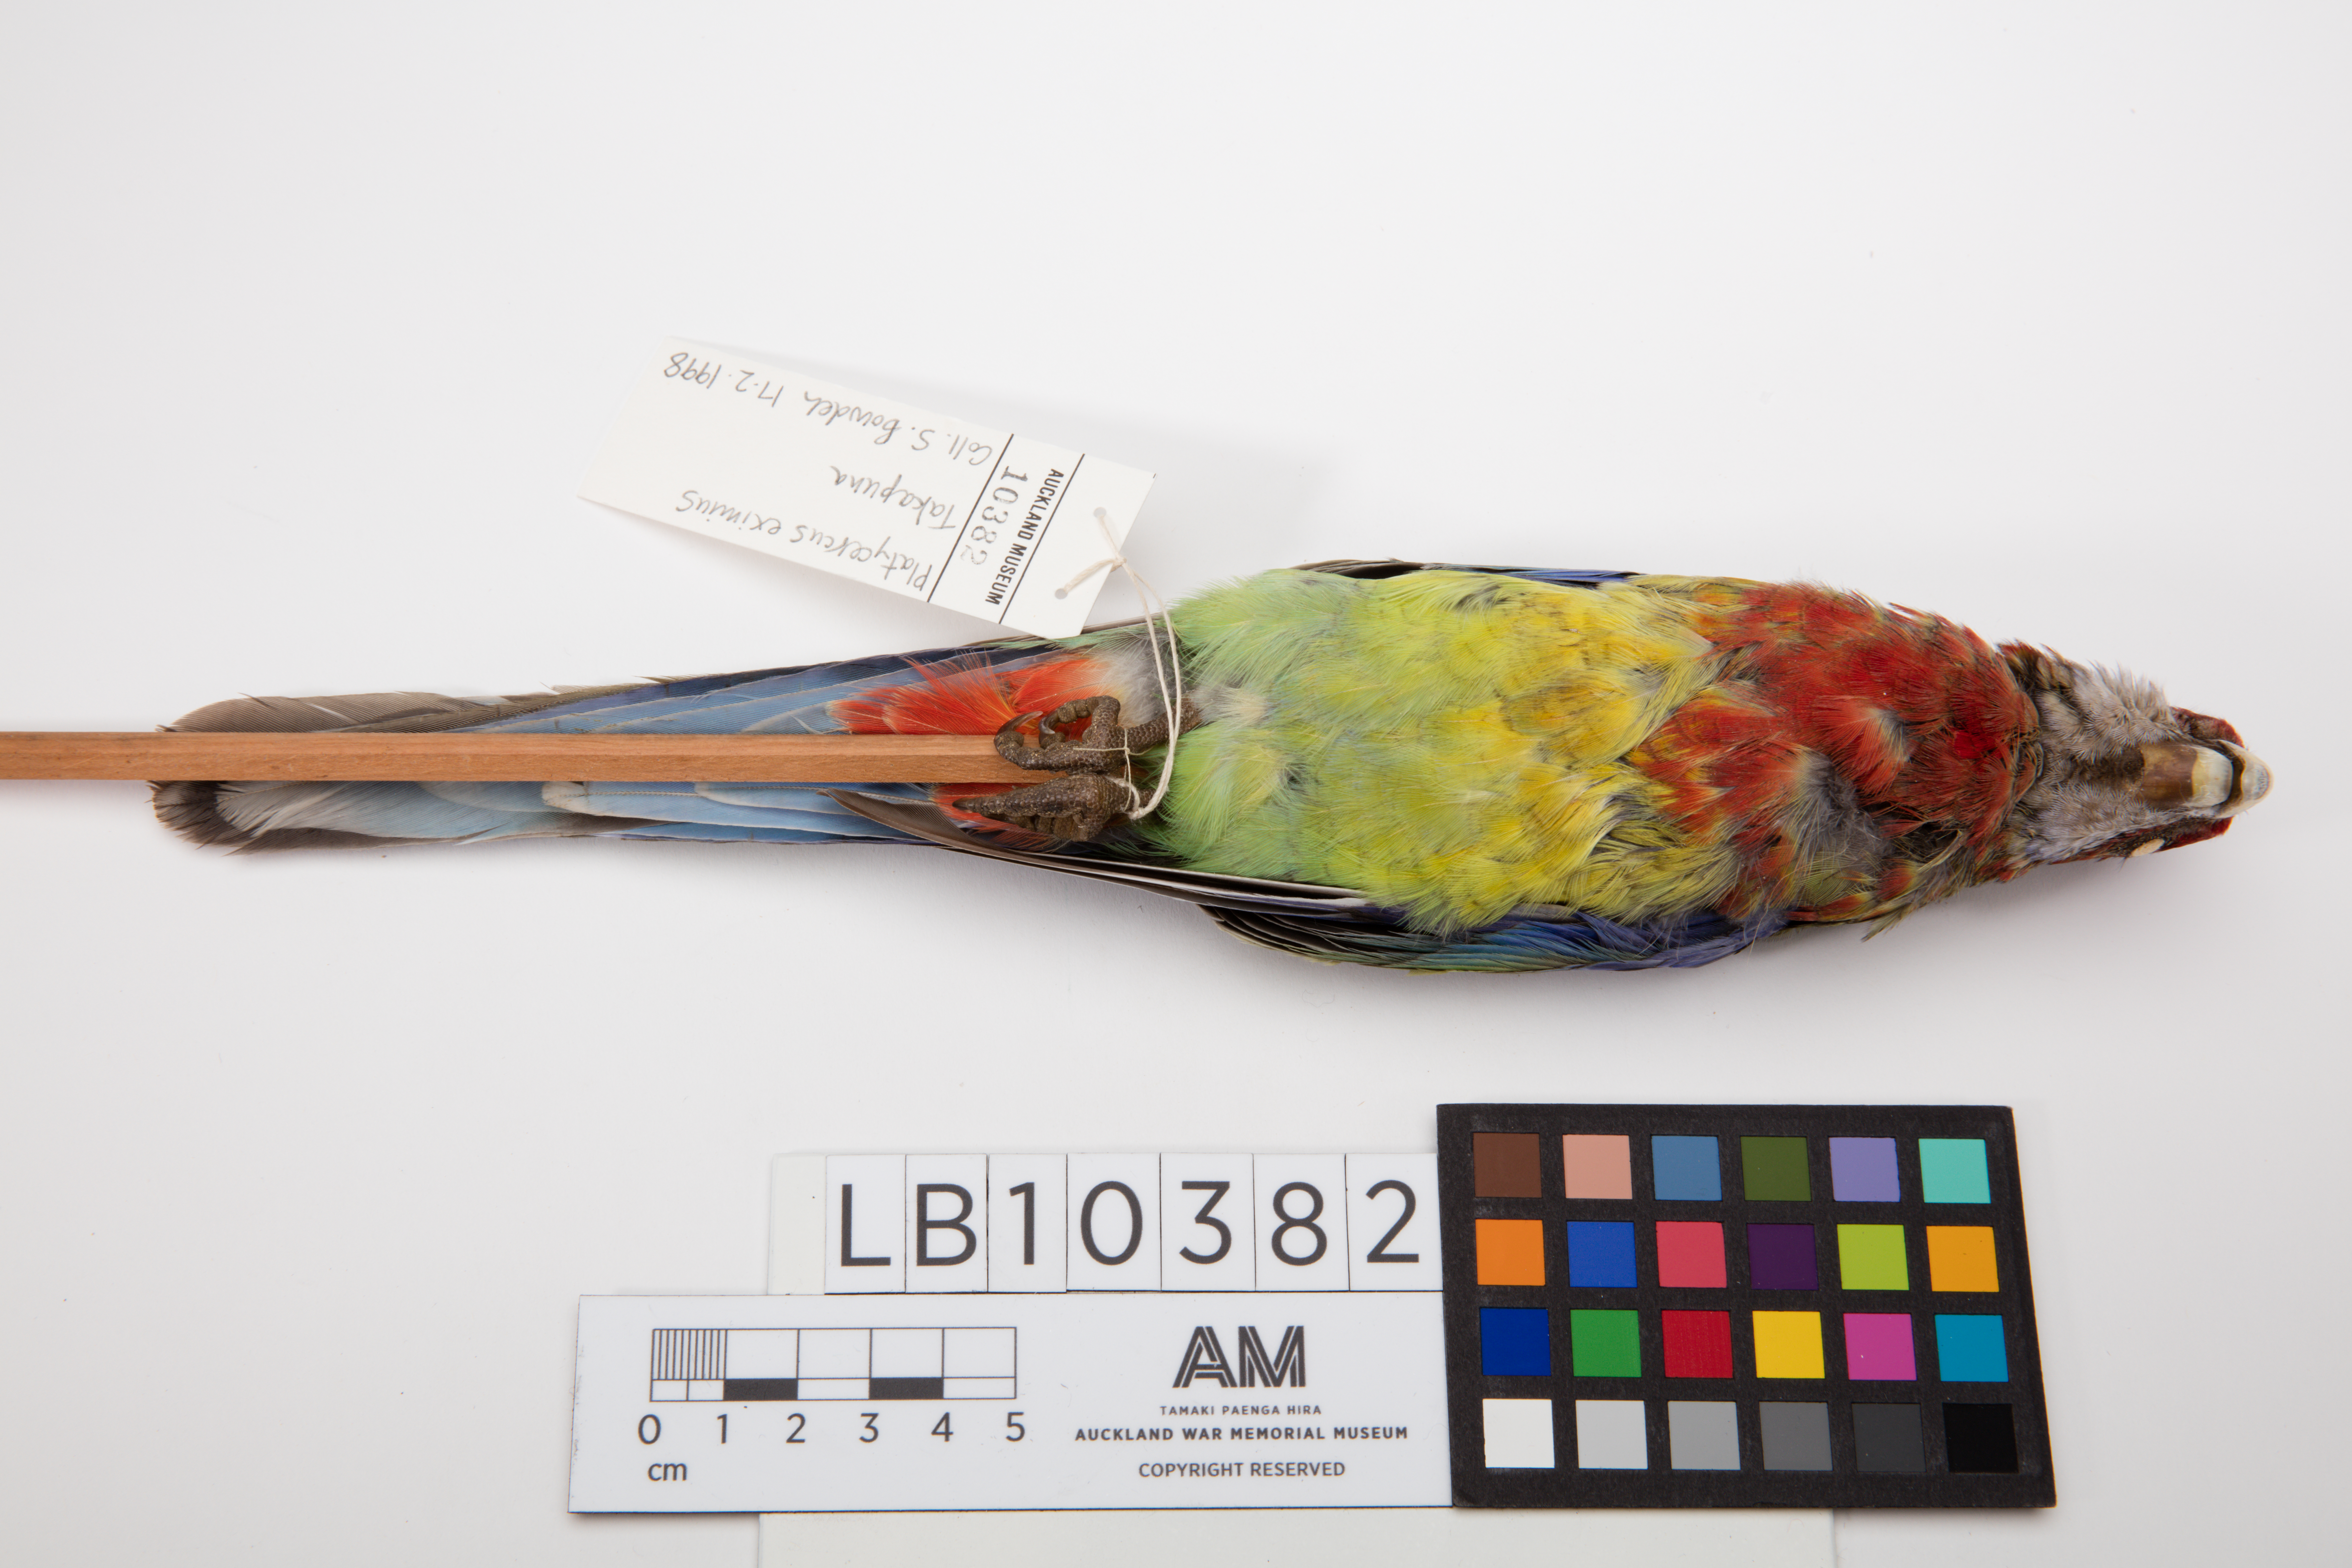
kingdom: Animalia
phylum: Chordata
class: Aves
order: Psittaciformes
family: Psittacidae
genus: Platycercus
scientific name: Platycercus eximius
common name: Eastern rosella
